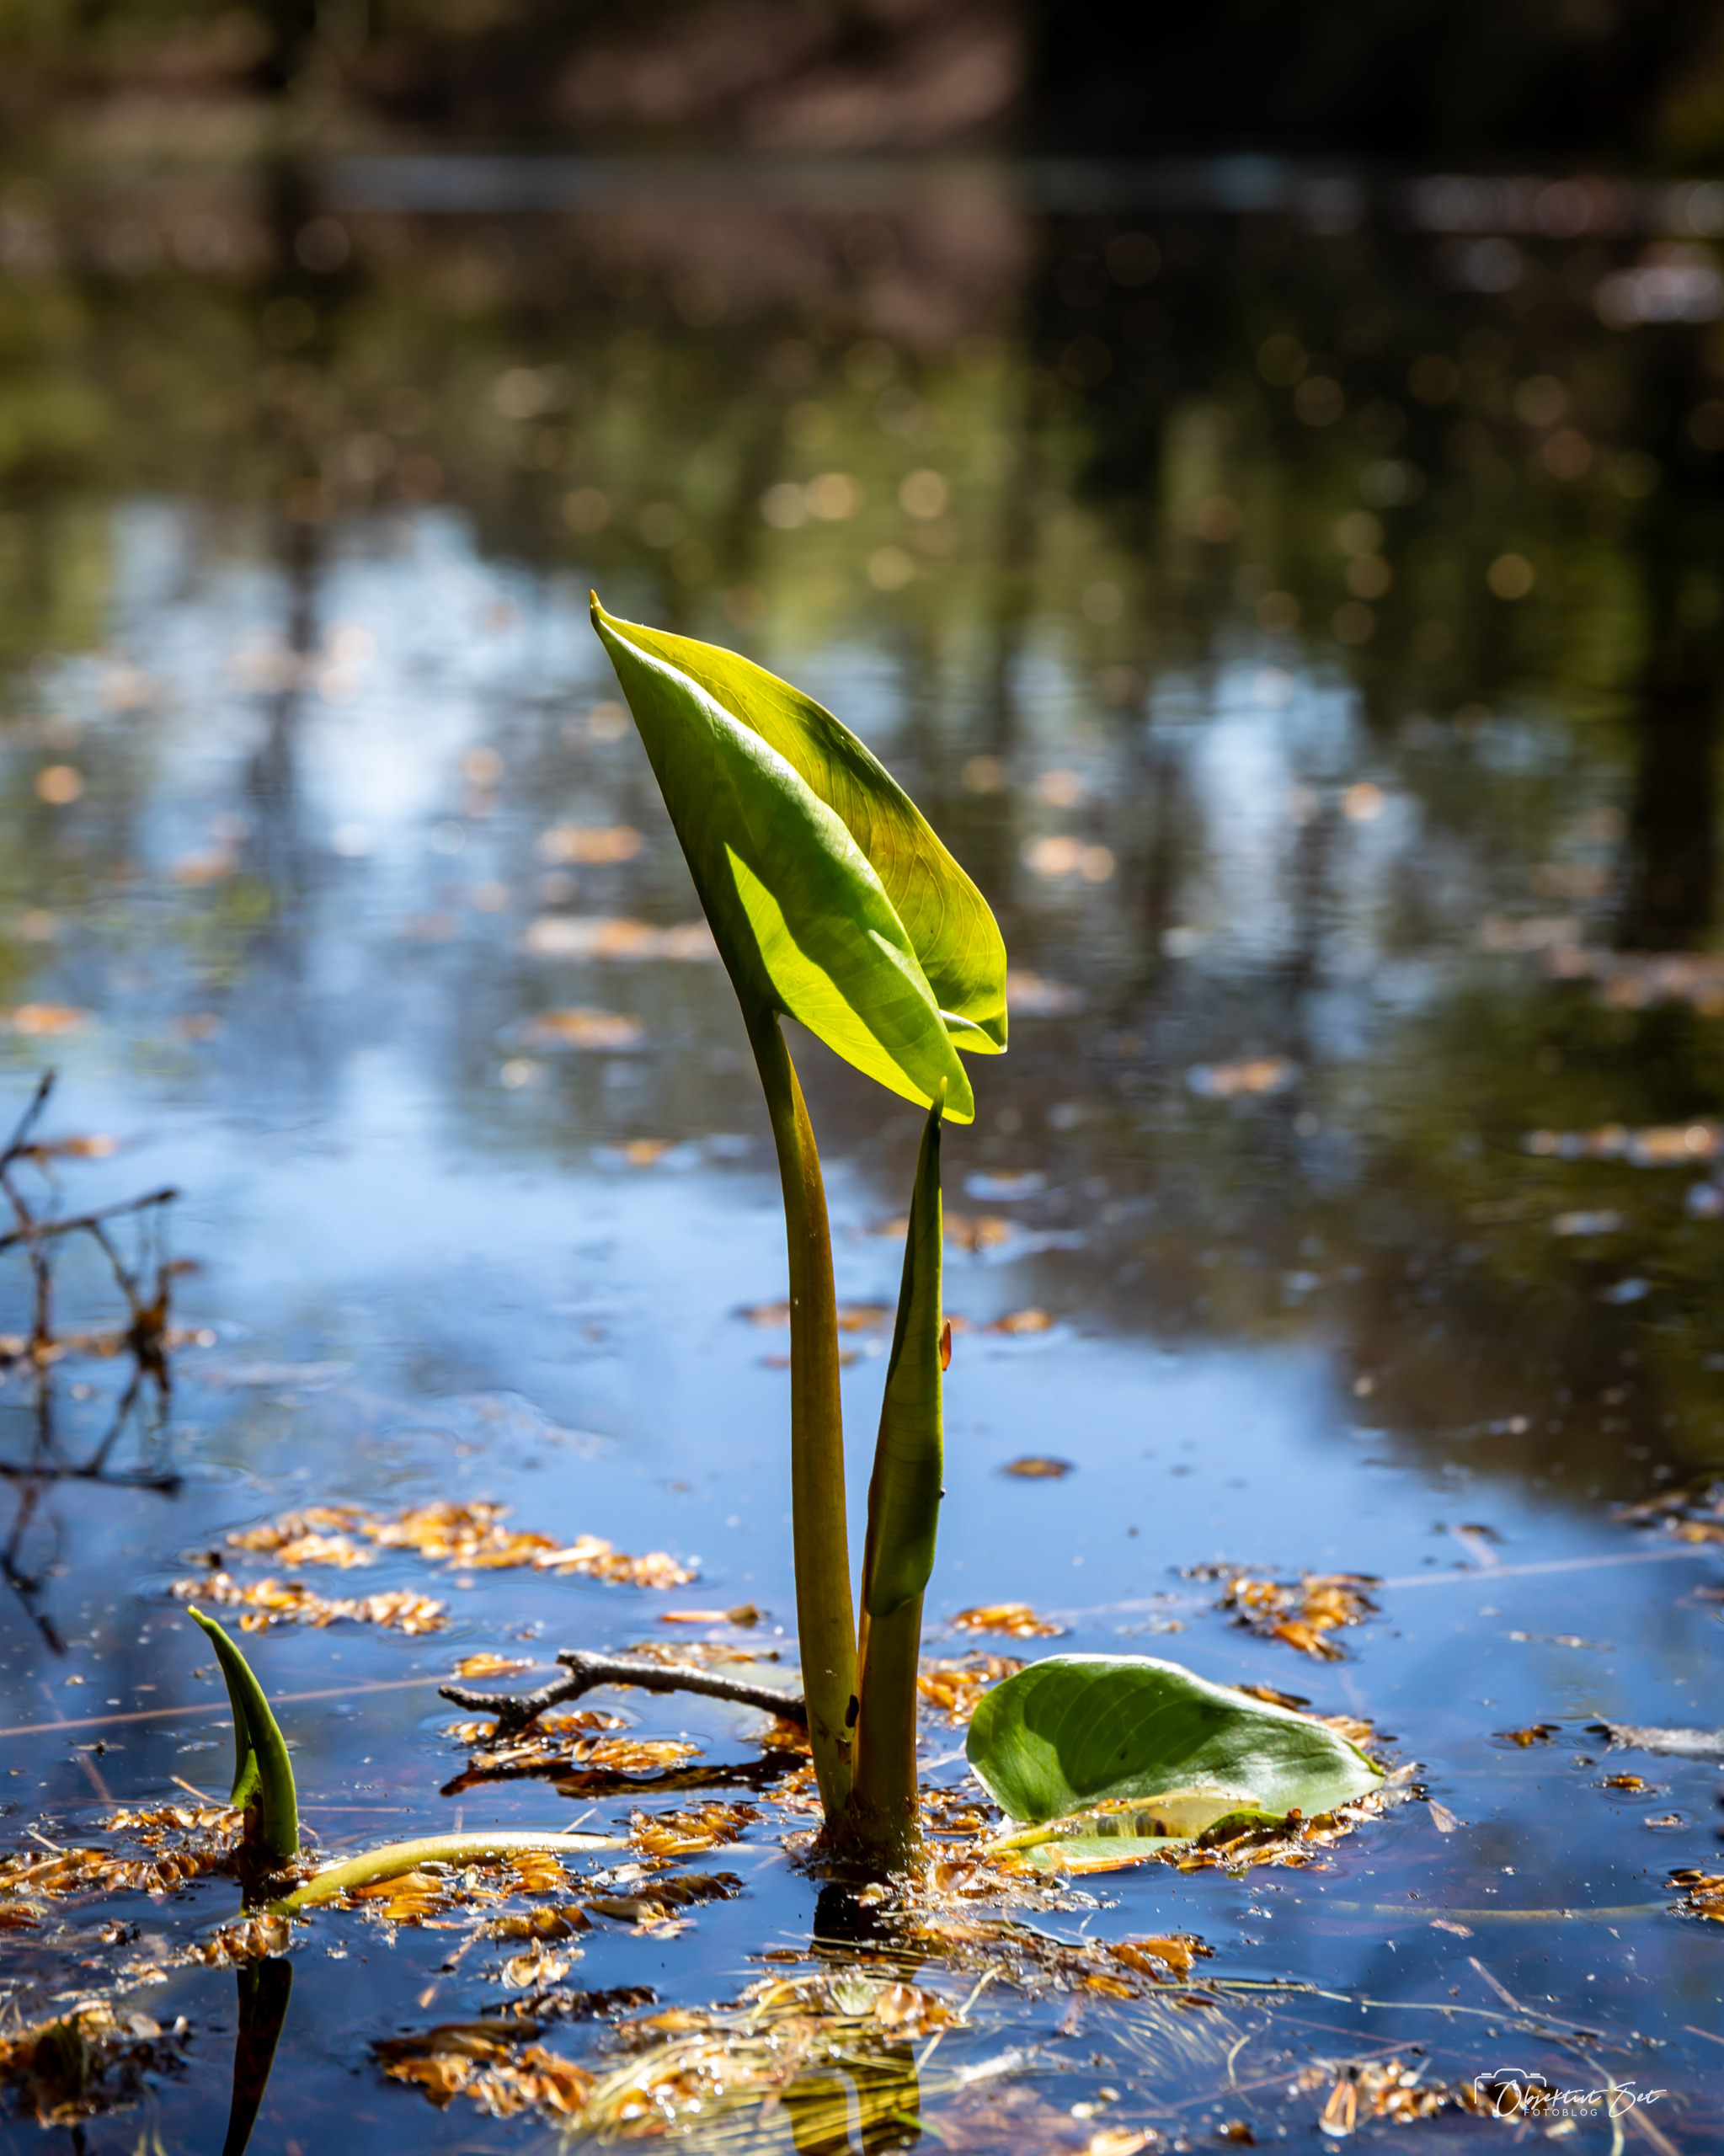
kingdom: Plantae
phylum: Tracheophyta
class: Liliopsida
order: Alismatales
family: Araceae
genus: Calla
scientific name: Calla palustris
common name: Kærmysse
